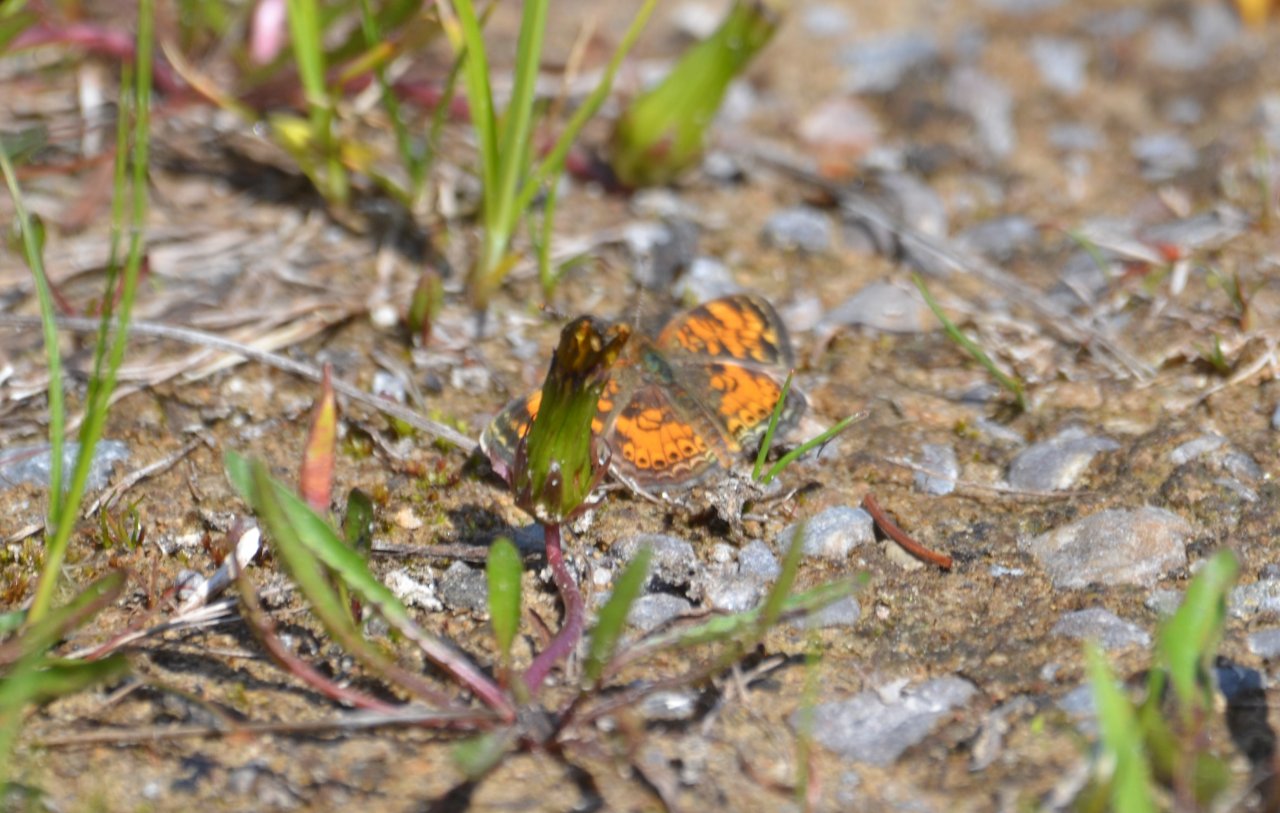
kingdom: Animalia
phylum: Arthropoda
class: Insecta
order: Lepidoptera
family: Nymphalidae
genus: Phyciodes
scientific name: Phyciodes
